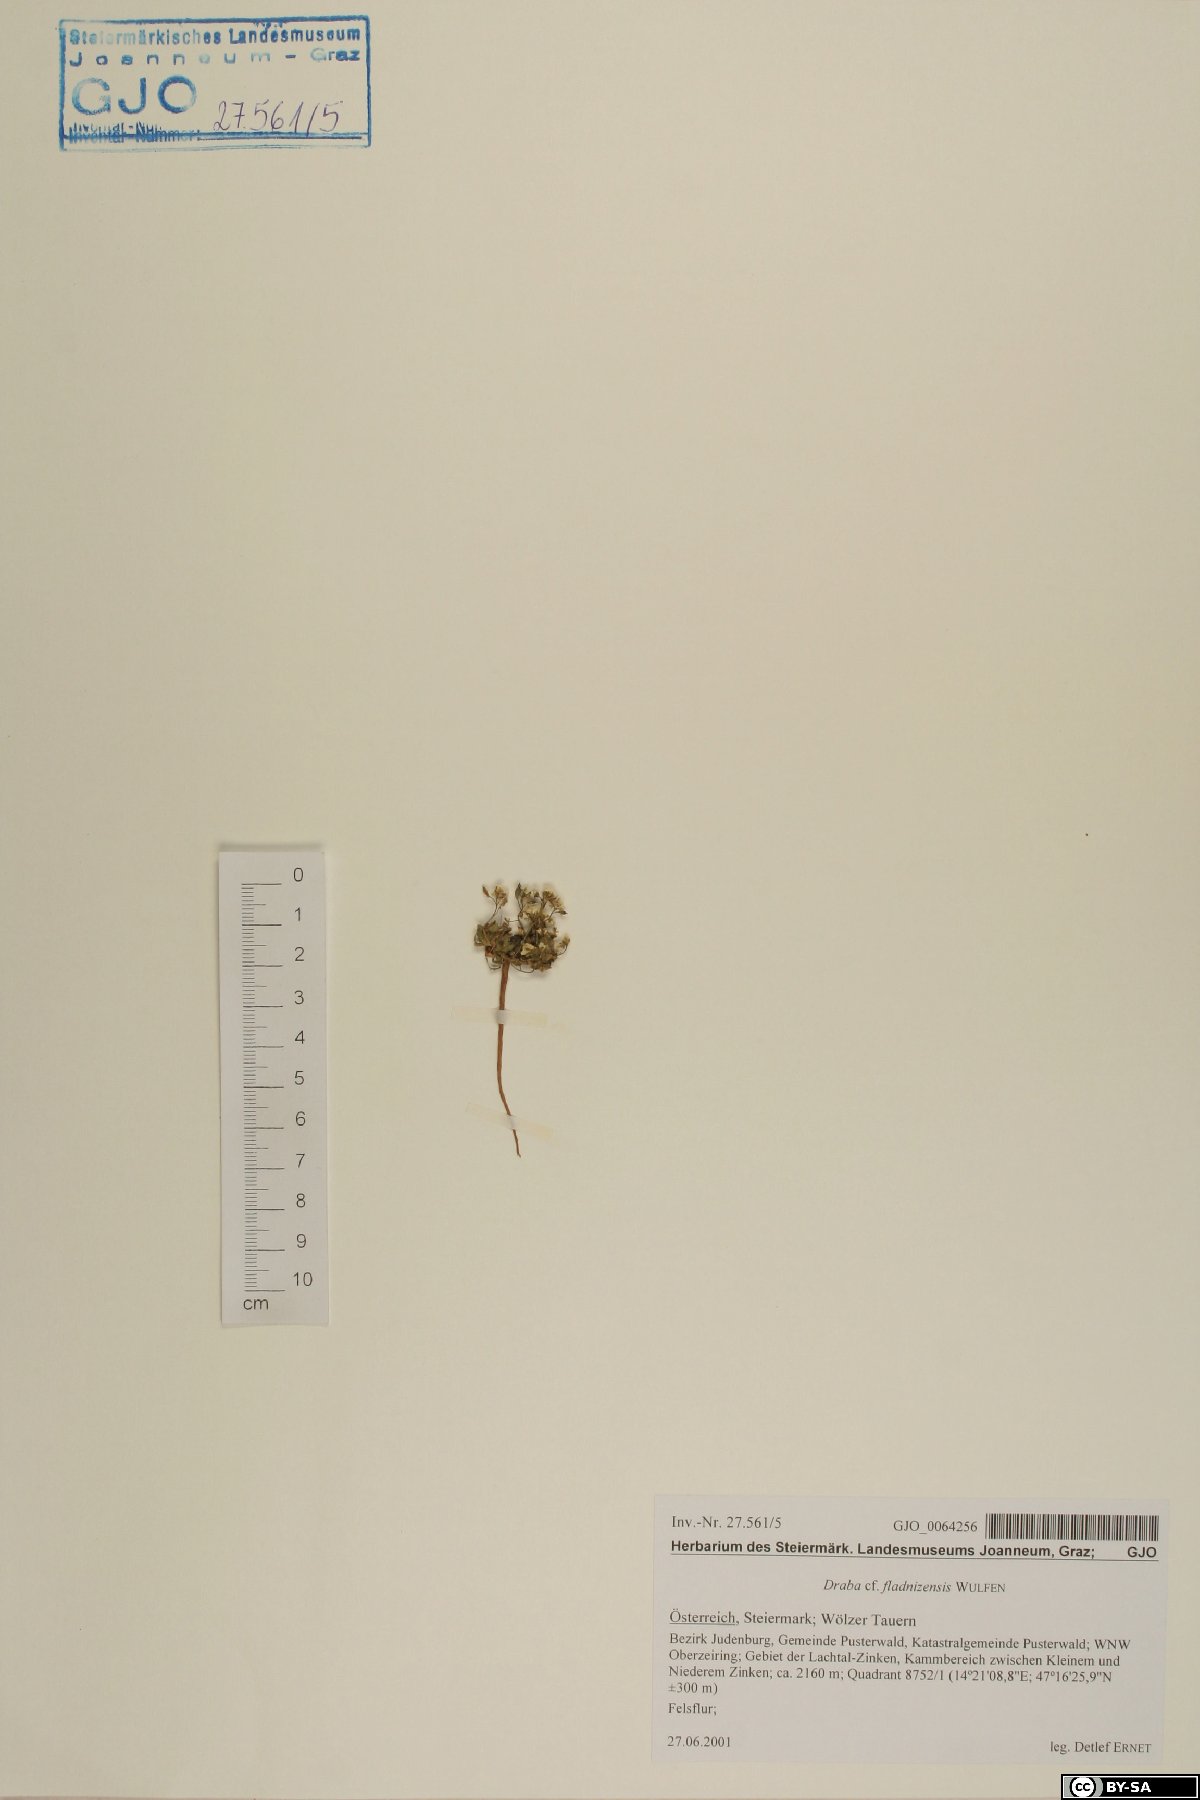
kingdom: Plantae
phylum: Tracheophyta
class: Magnoliopsida
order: Brassicales
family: Brassicaceae
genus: Draba
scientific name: Draba fladnizensis
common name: Austrian draba
